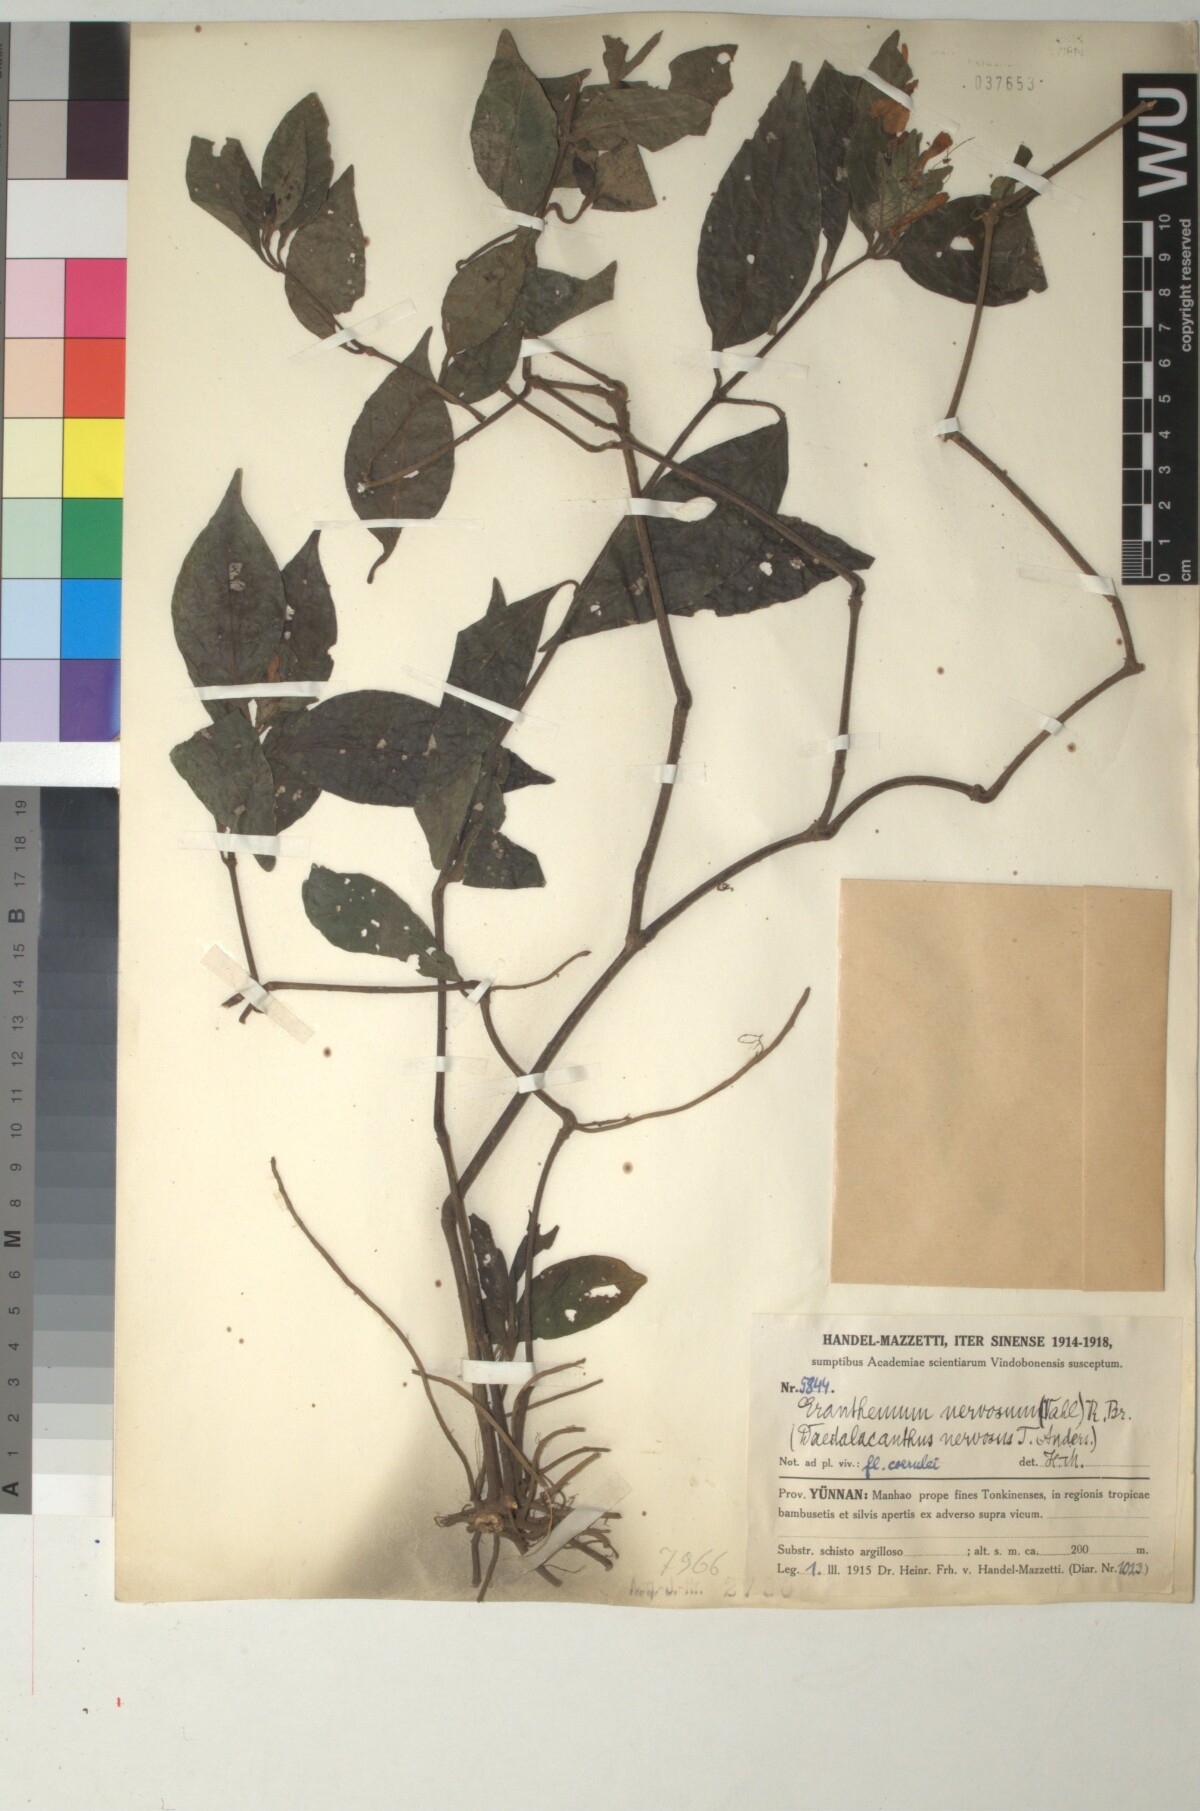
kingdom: Plantae
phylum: Tracheophyta
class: Magnoliopsida
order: Lamiales
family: Acanthaceae
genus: Eranthemum
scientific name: Eranthemum pulchellum
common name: Blue-sage
